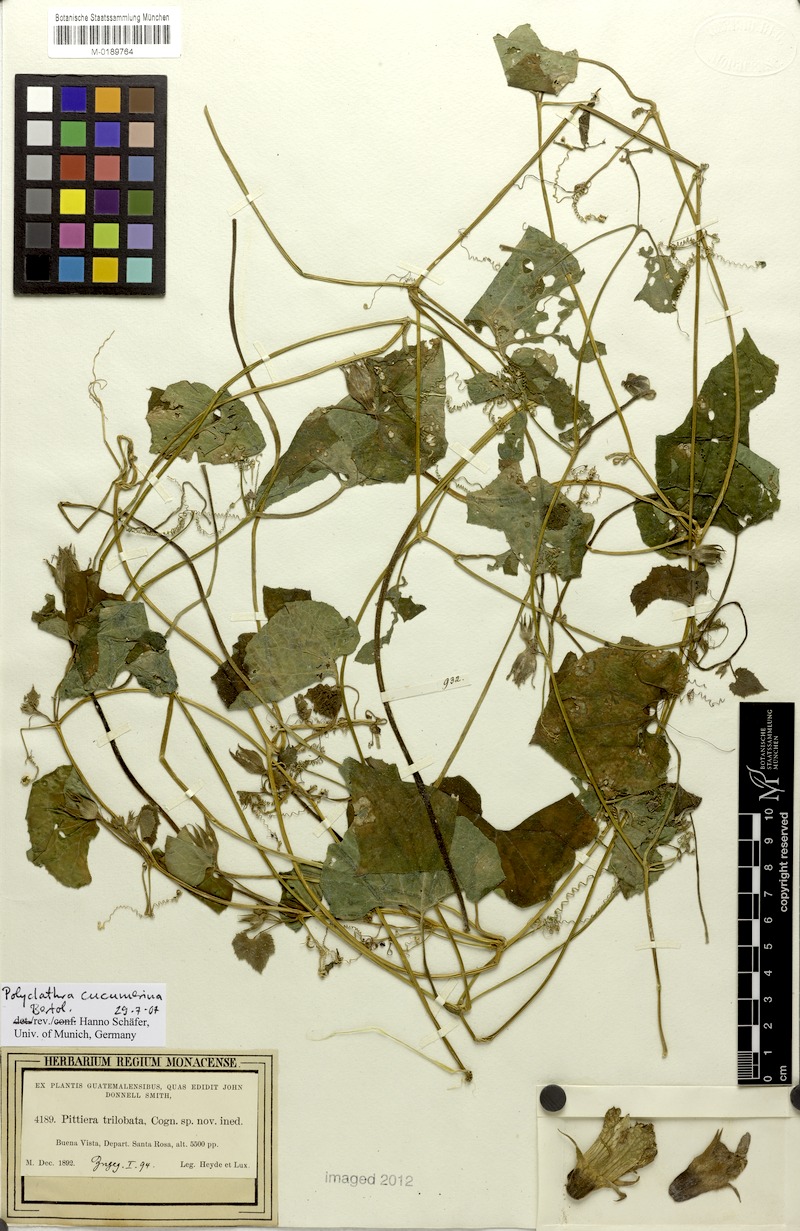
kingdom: Plantae
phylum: Tracheophyta
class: Magnoliopsida
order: Cucurbitales
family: Cucurbitaceae
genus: Polyclathra
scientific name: Polyclathra cucumerina
